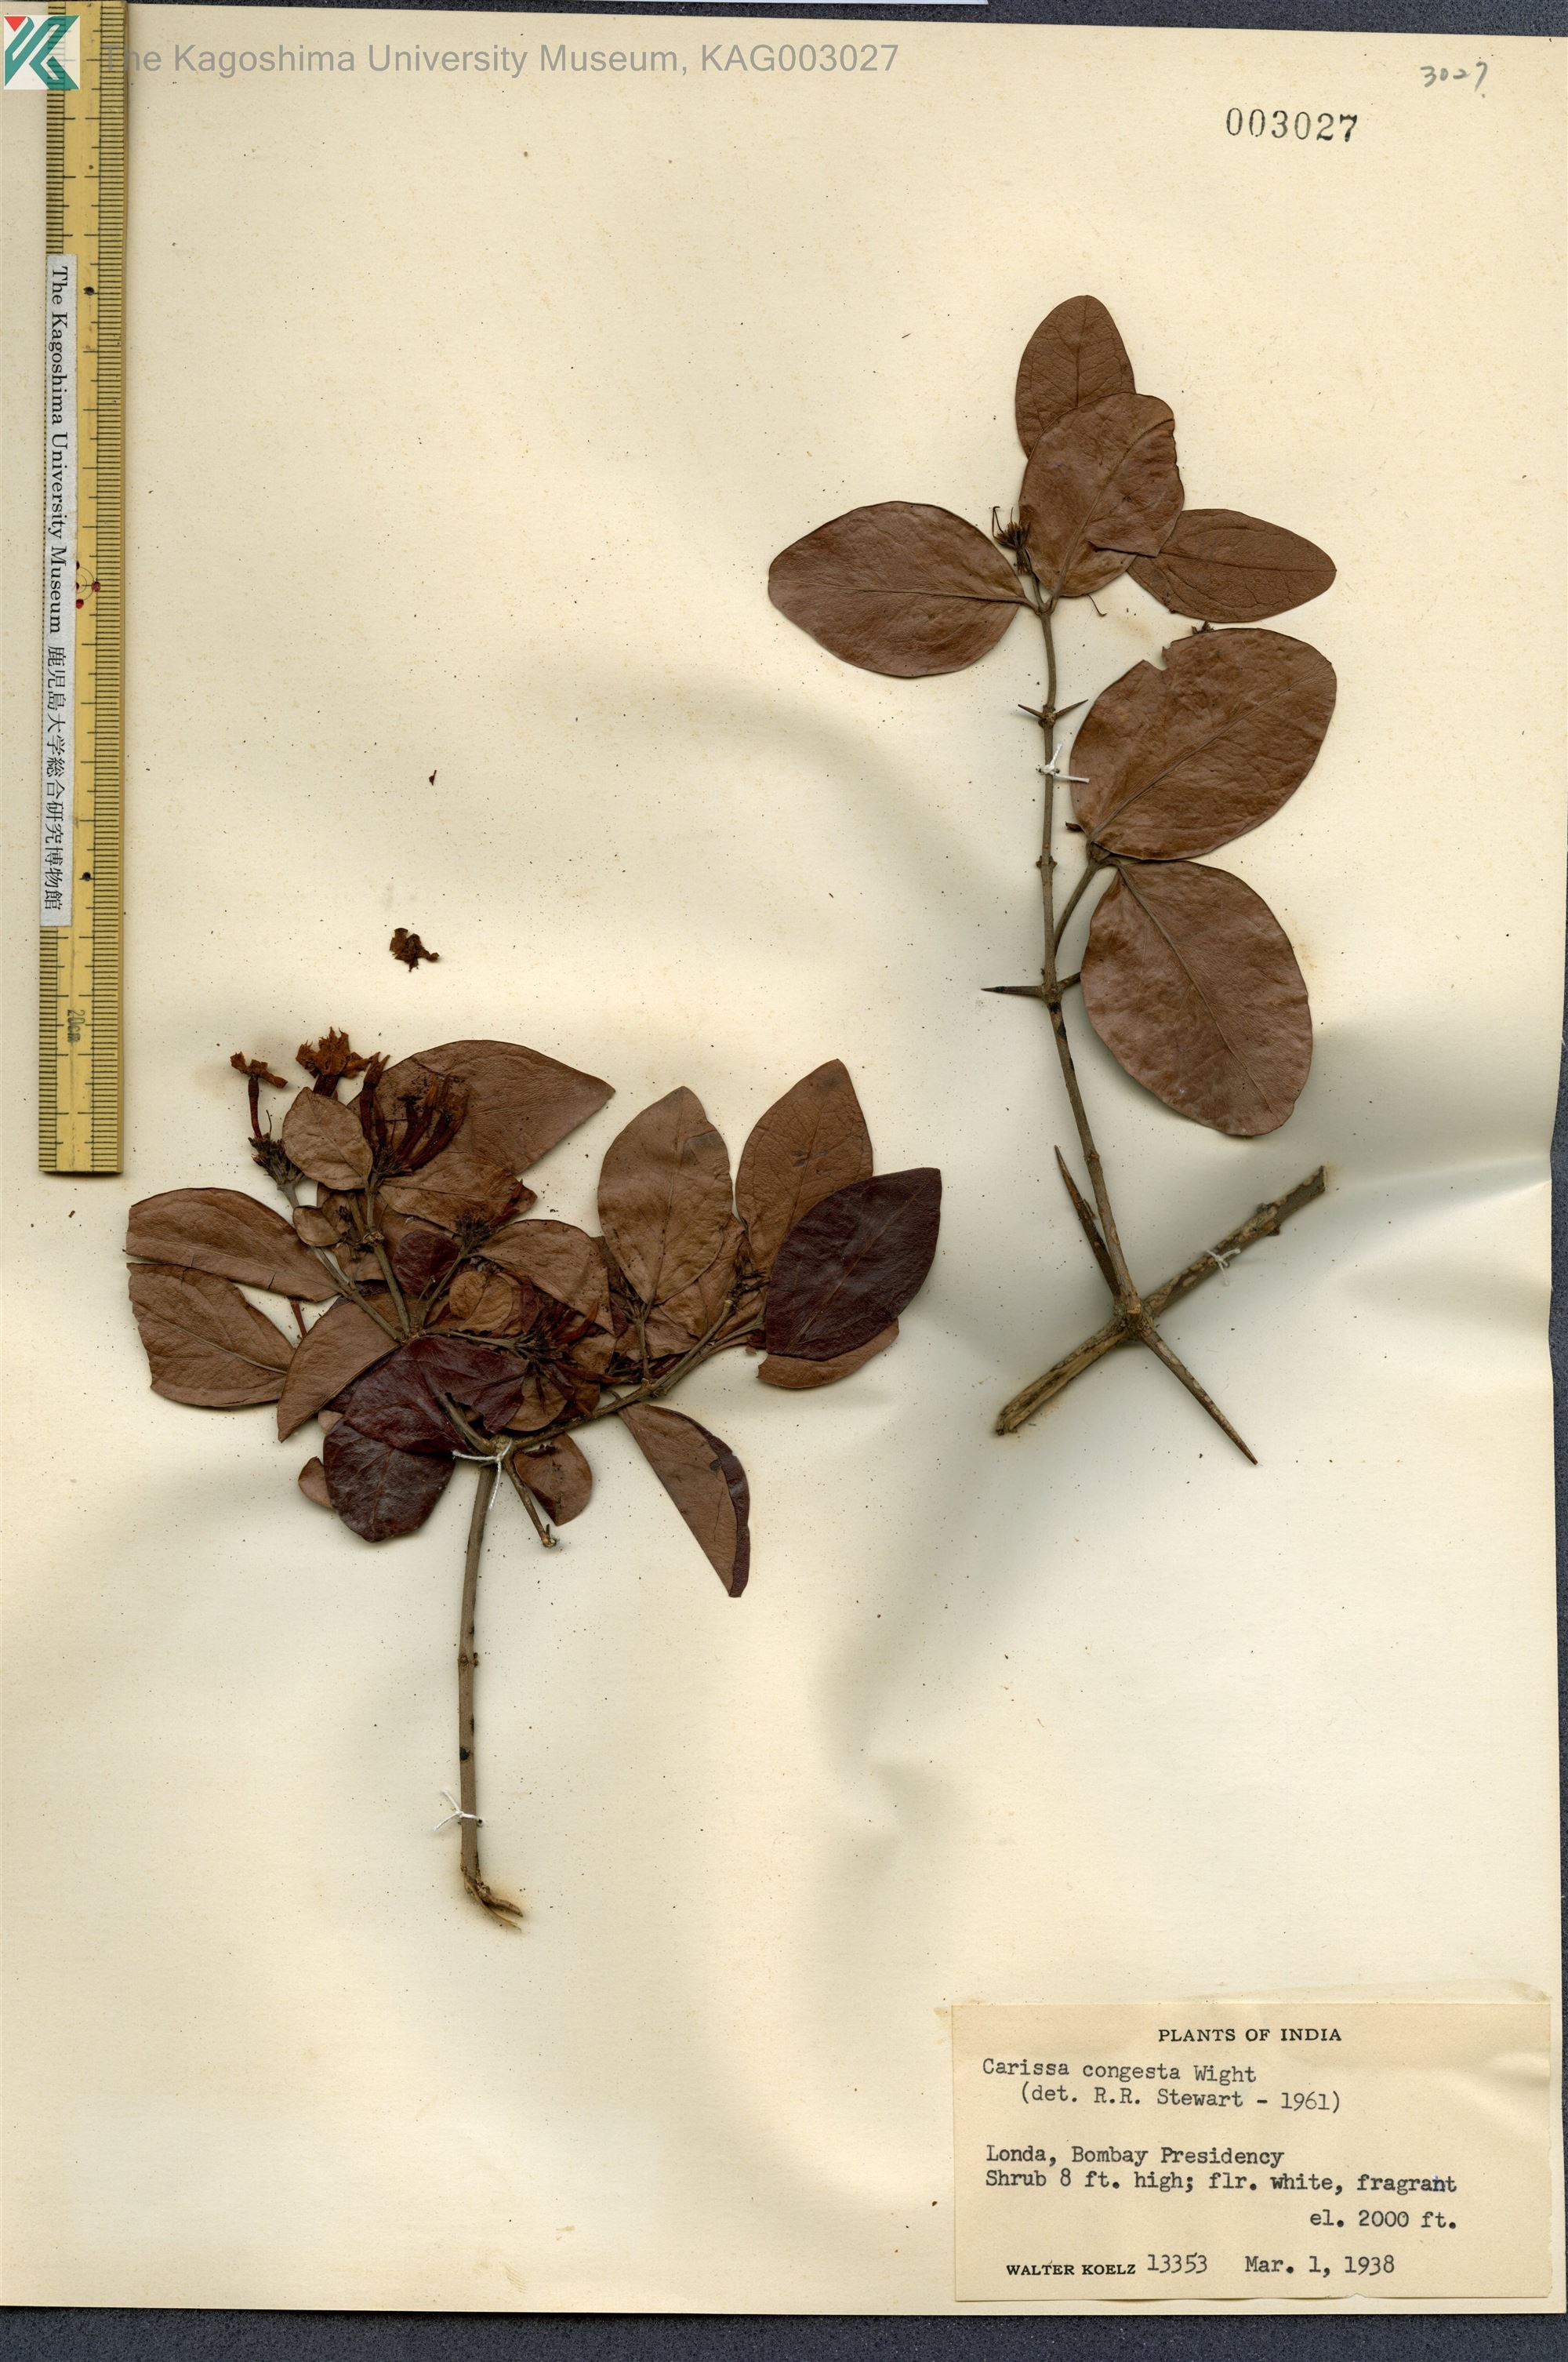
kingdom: Plantae
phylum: Tracheophyta
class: Magnoliopsida
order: Gentianales
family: Apocynaceae
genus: Carissa
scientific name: Carissa congesta
